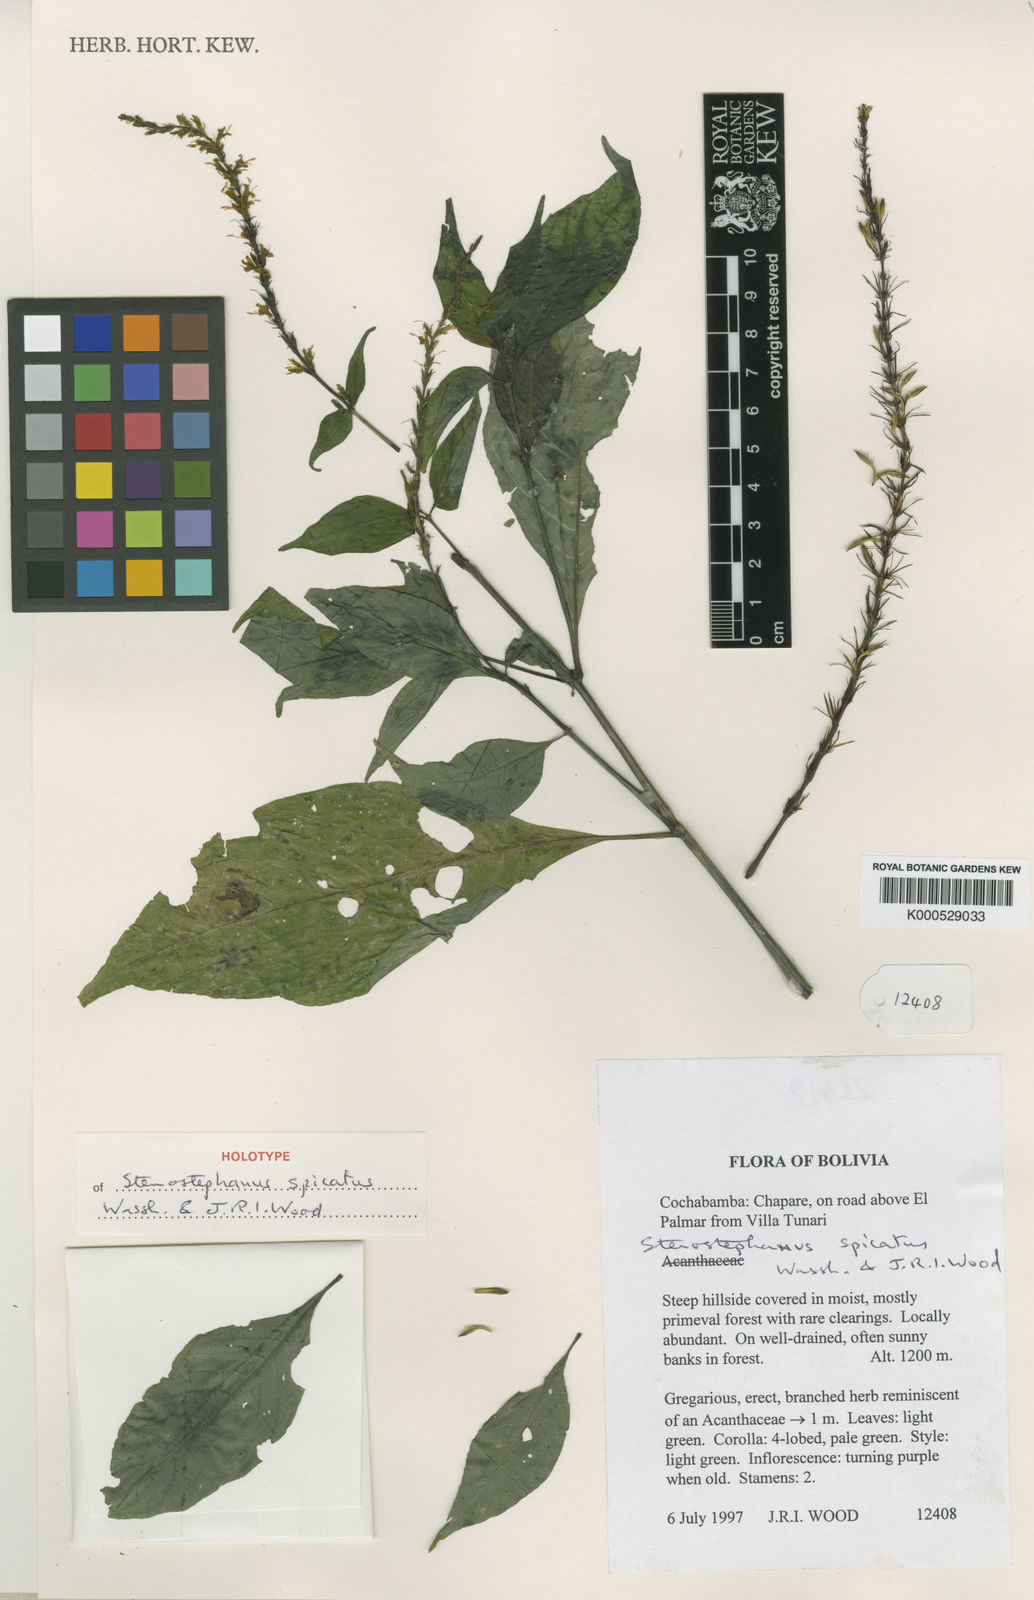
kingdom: Plantae
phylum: Tracheophyta
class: Magnoliopsida
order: Lamiales
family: Acanthaceae
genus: Stenostephanus
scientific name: Stenostephanus spicatus
